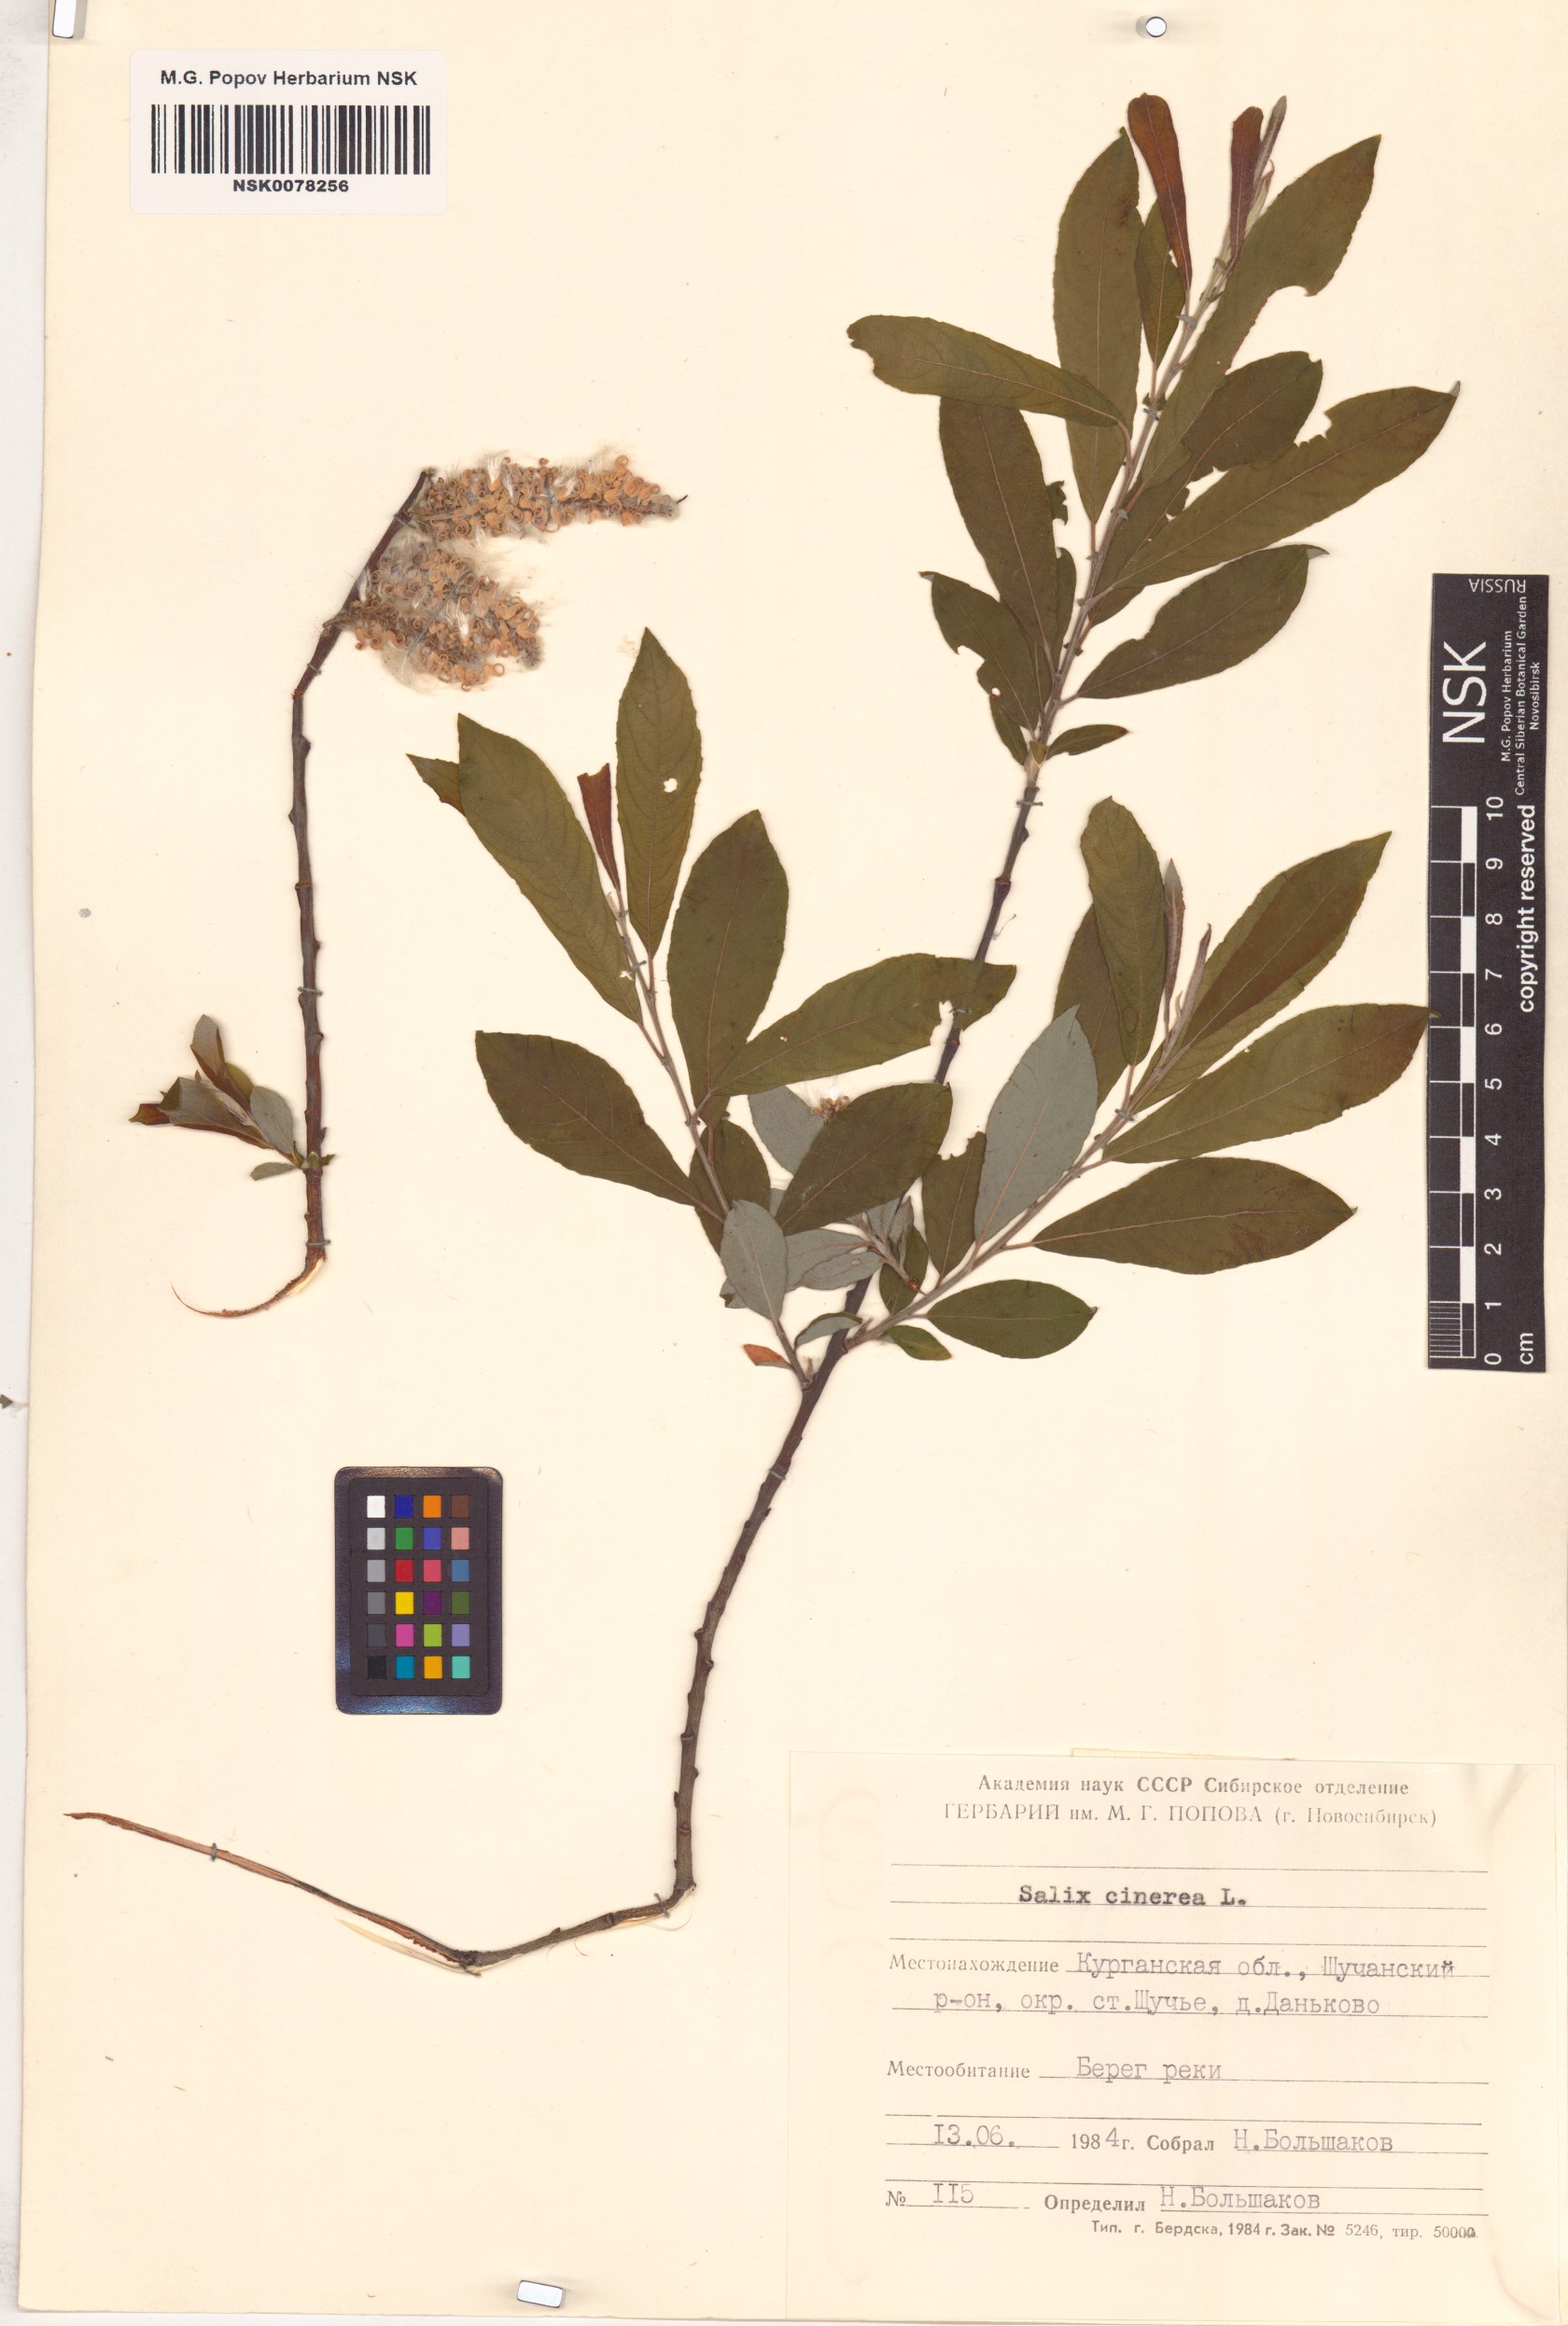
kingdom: Plantae
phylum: Tracheophyta
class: Magnoliopsida
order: Malpighiales
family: Salicaceae
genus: Salix
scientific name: Salix cinerea
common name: Common sallow
